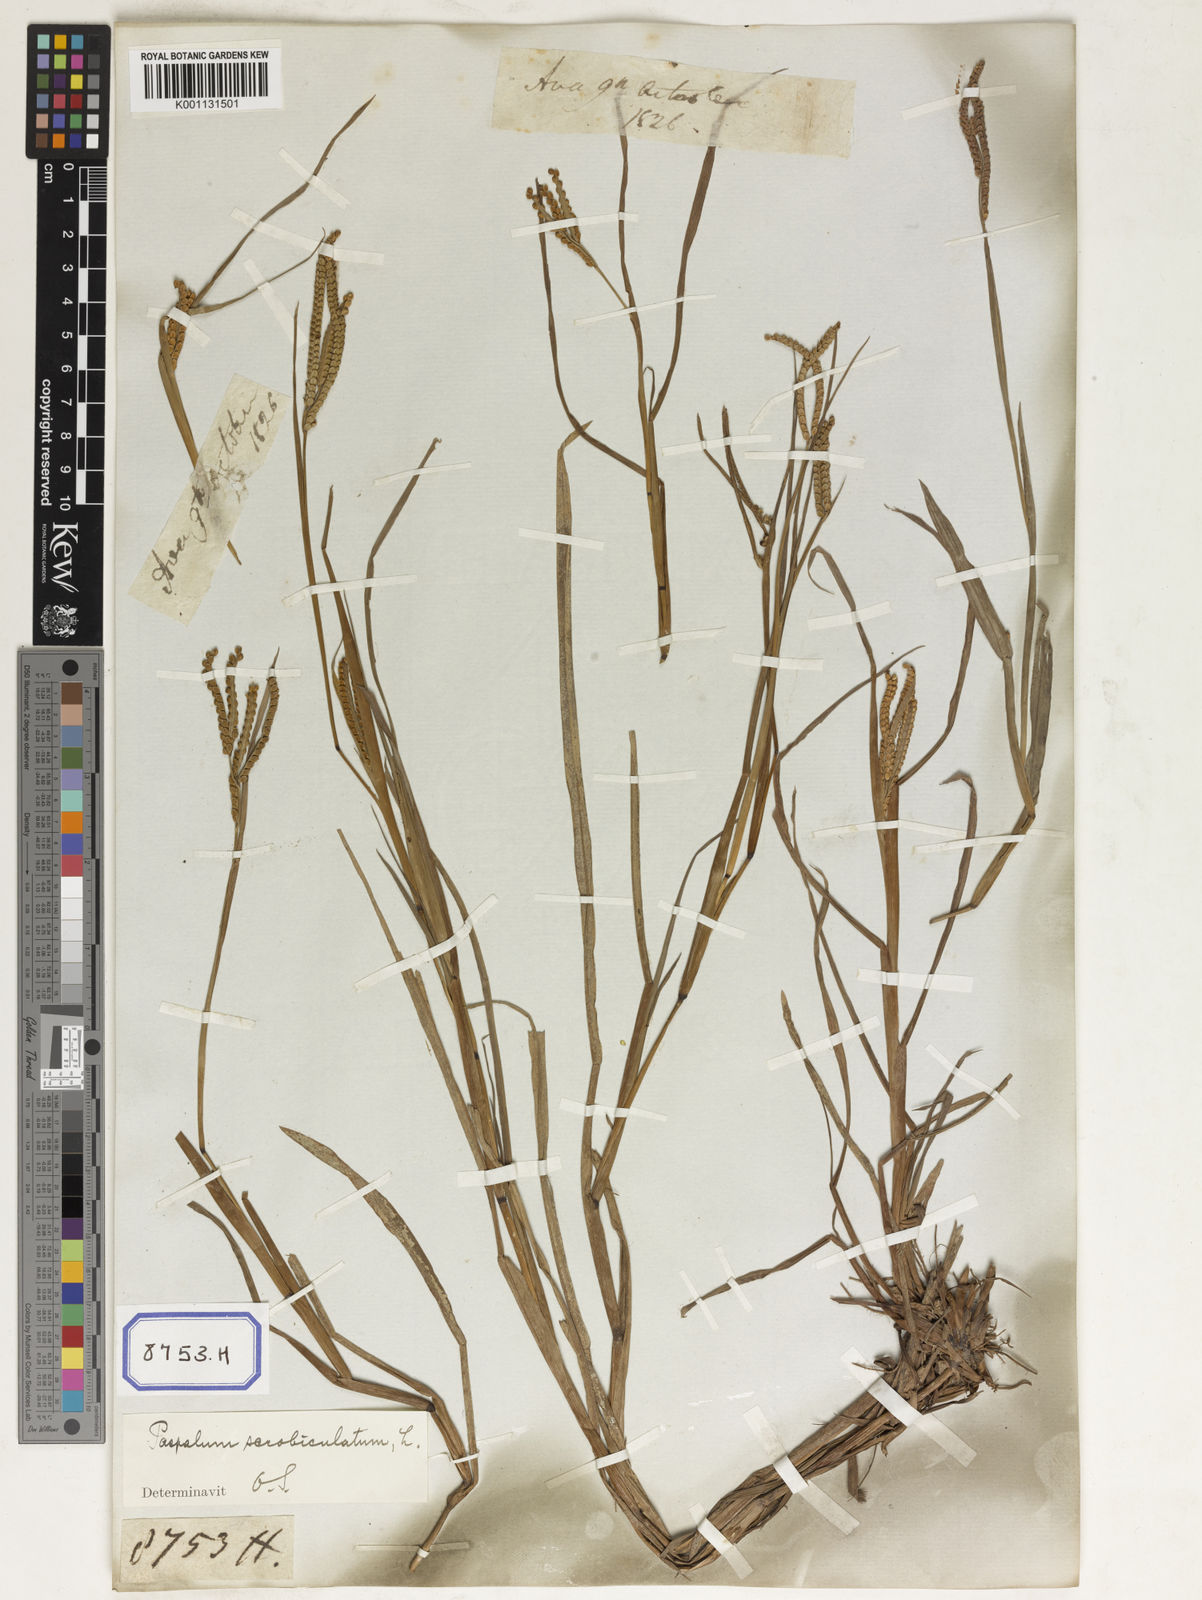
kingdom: Plantae
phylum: Tracheophyta
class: Liliopsida
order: Poales
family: Poaceae
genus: Paspalum
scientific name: Paspalum scrobiculatum
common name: Kodo millet
